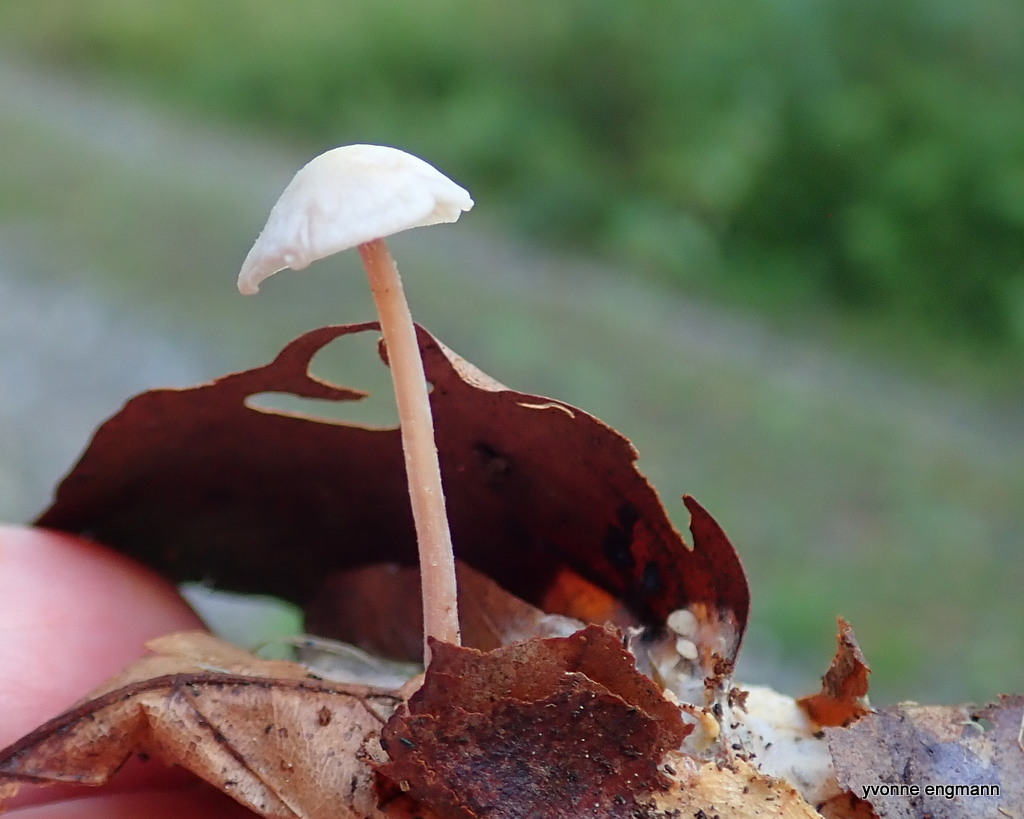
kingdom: Fungi
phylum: Basidiomycota
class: Agaricomycetes
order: Agaricales
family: Omphalotaceae
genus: Collybiopsis
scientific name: Collybiopsis confluens
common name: knippe-fladhat
